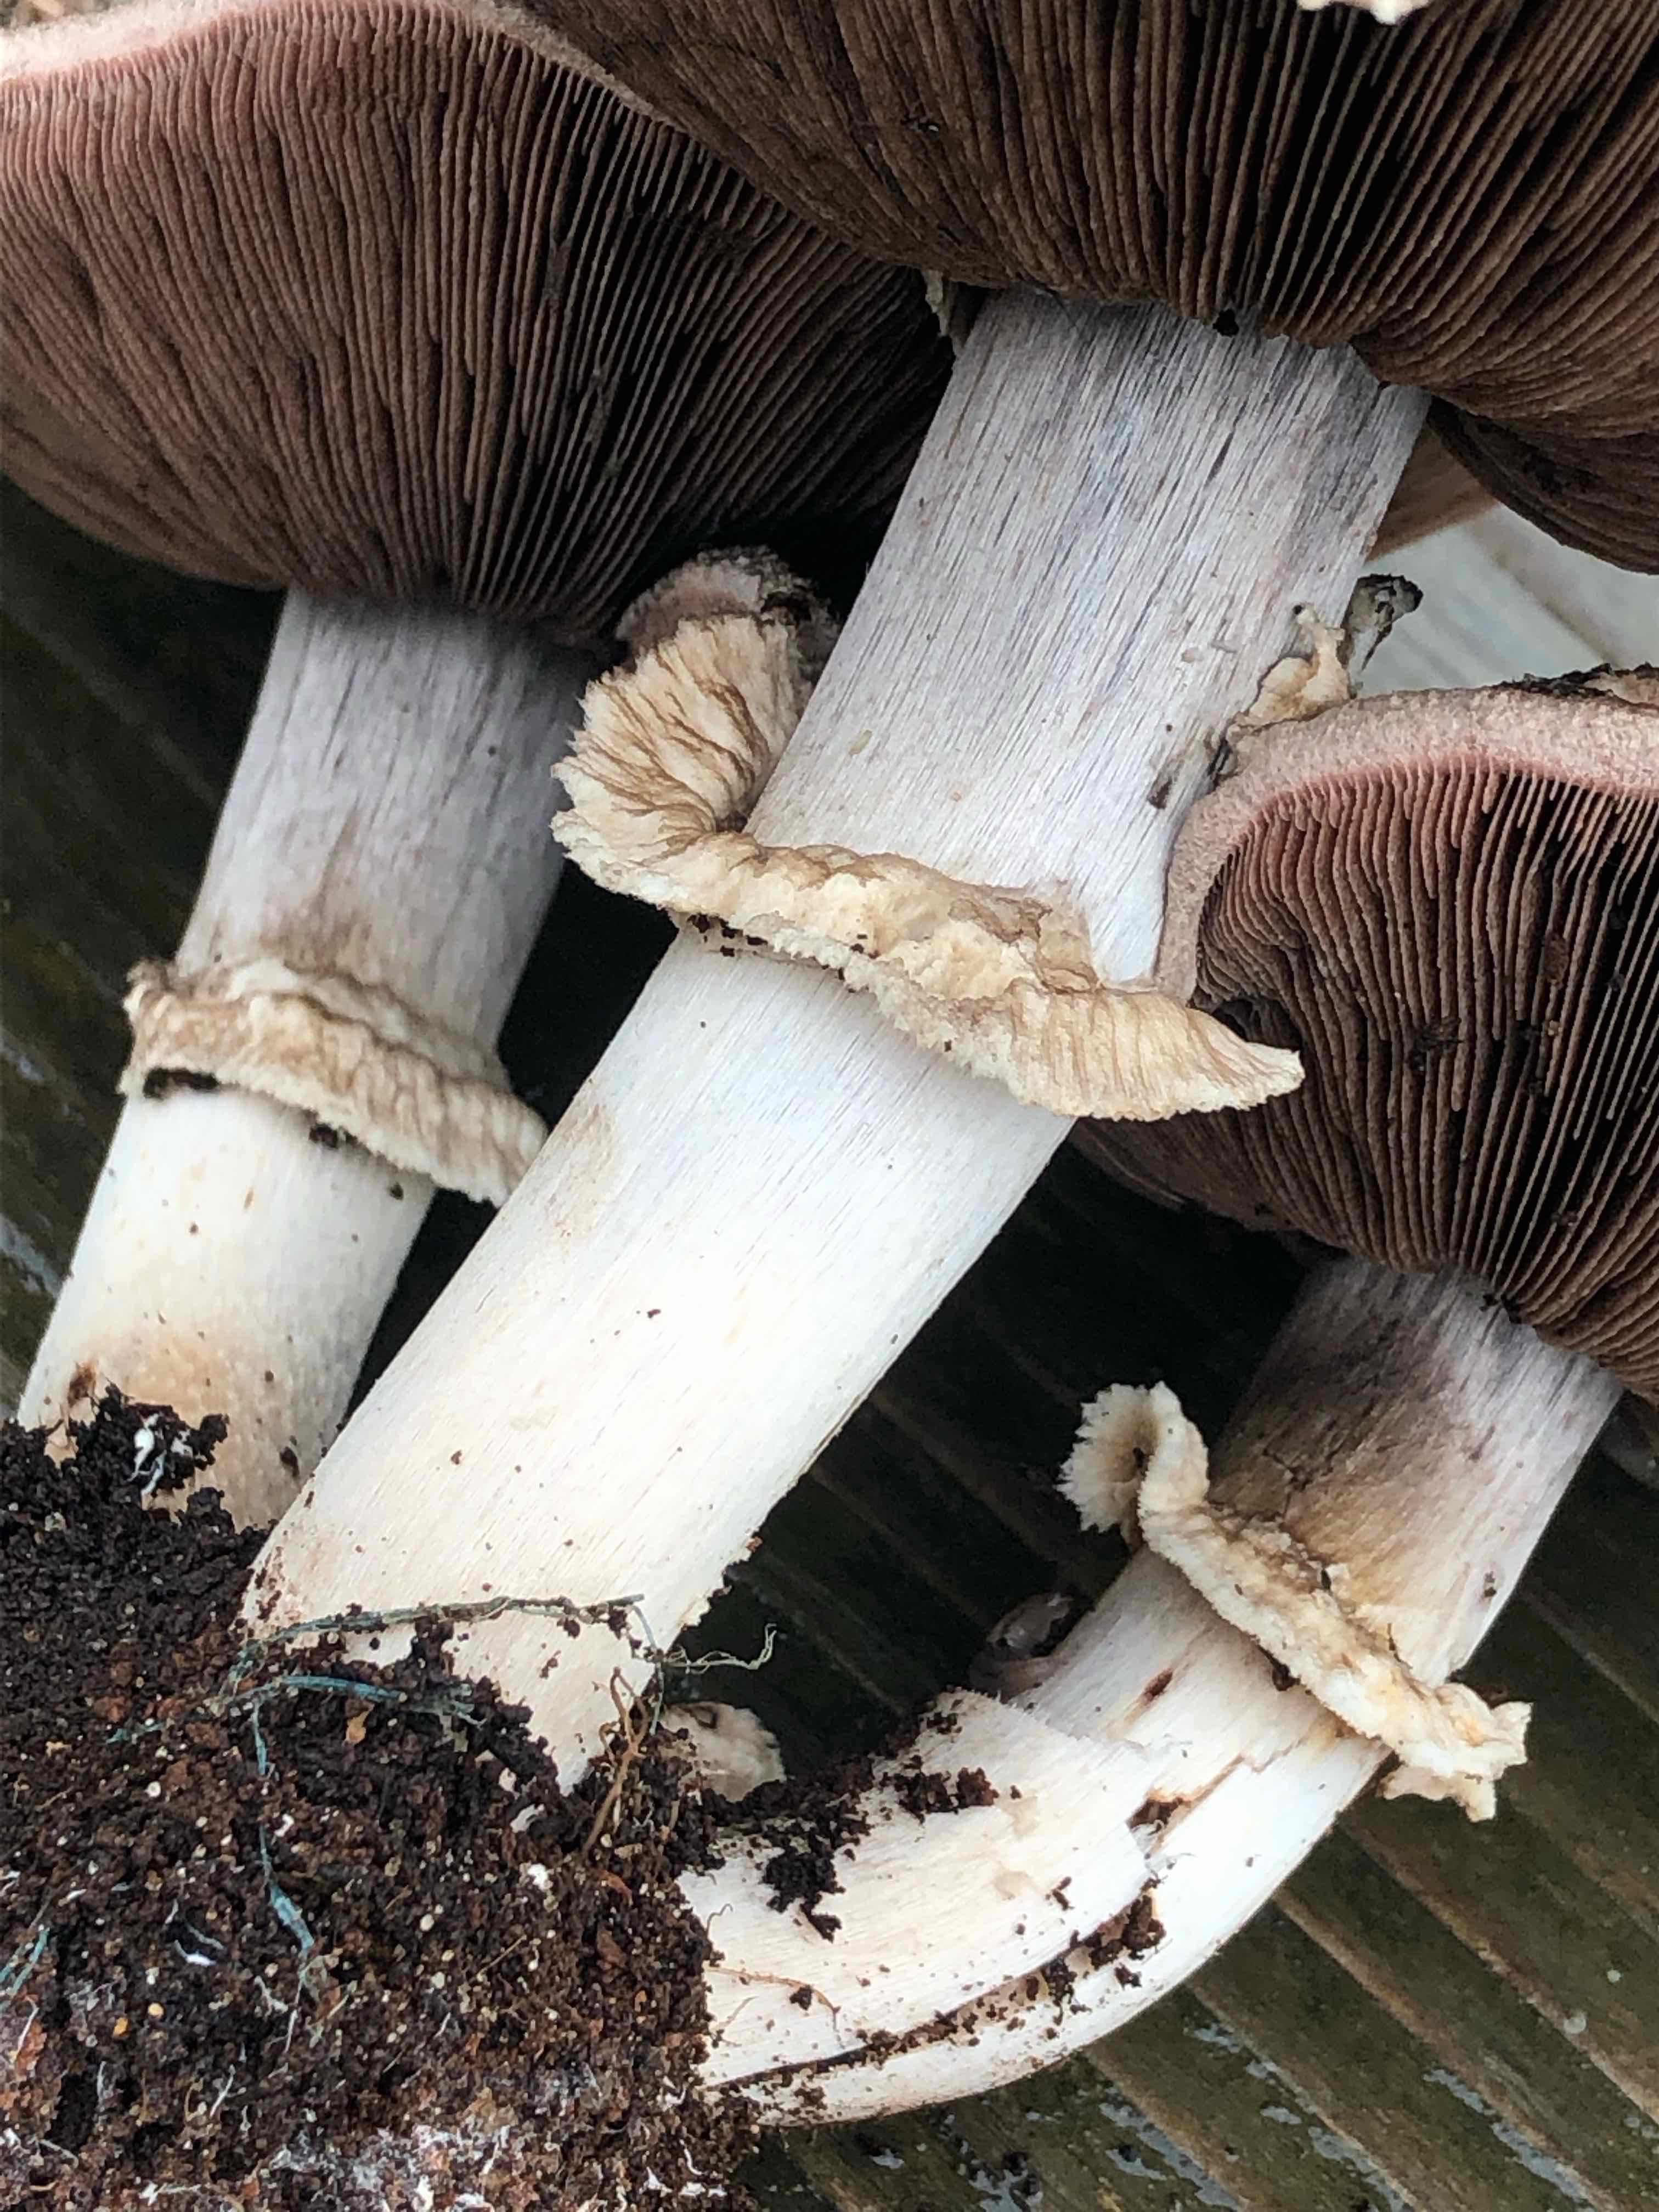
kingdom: Fungi
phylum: Basidiomycota
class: Agaricomycetes
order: Agaricales
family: Agaricaceae
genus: Agaricus
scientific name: Agaricus
